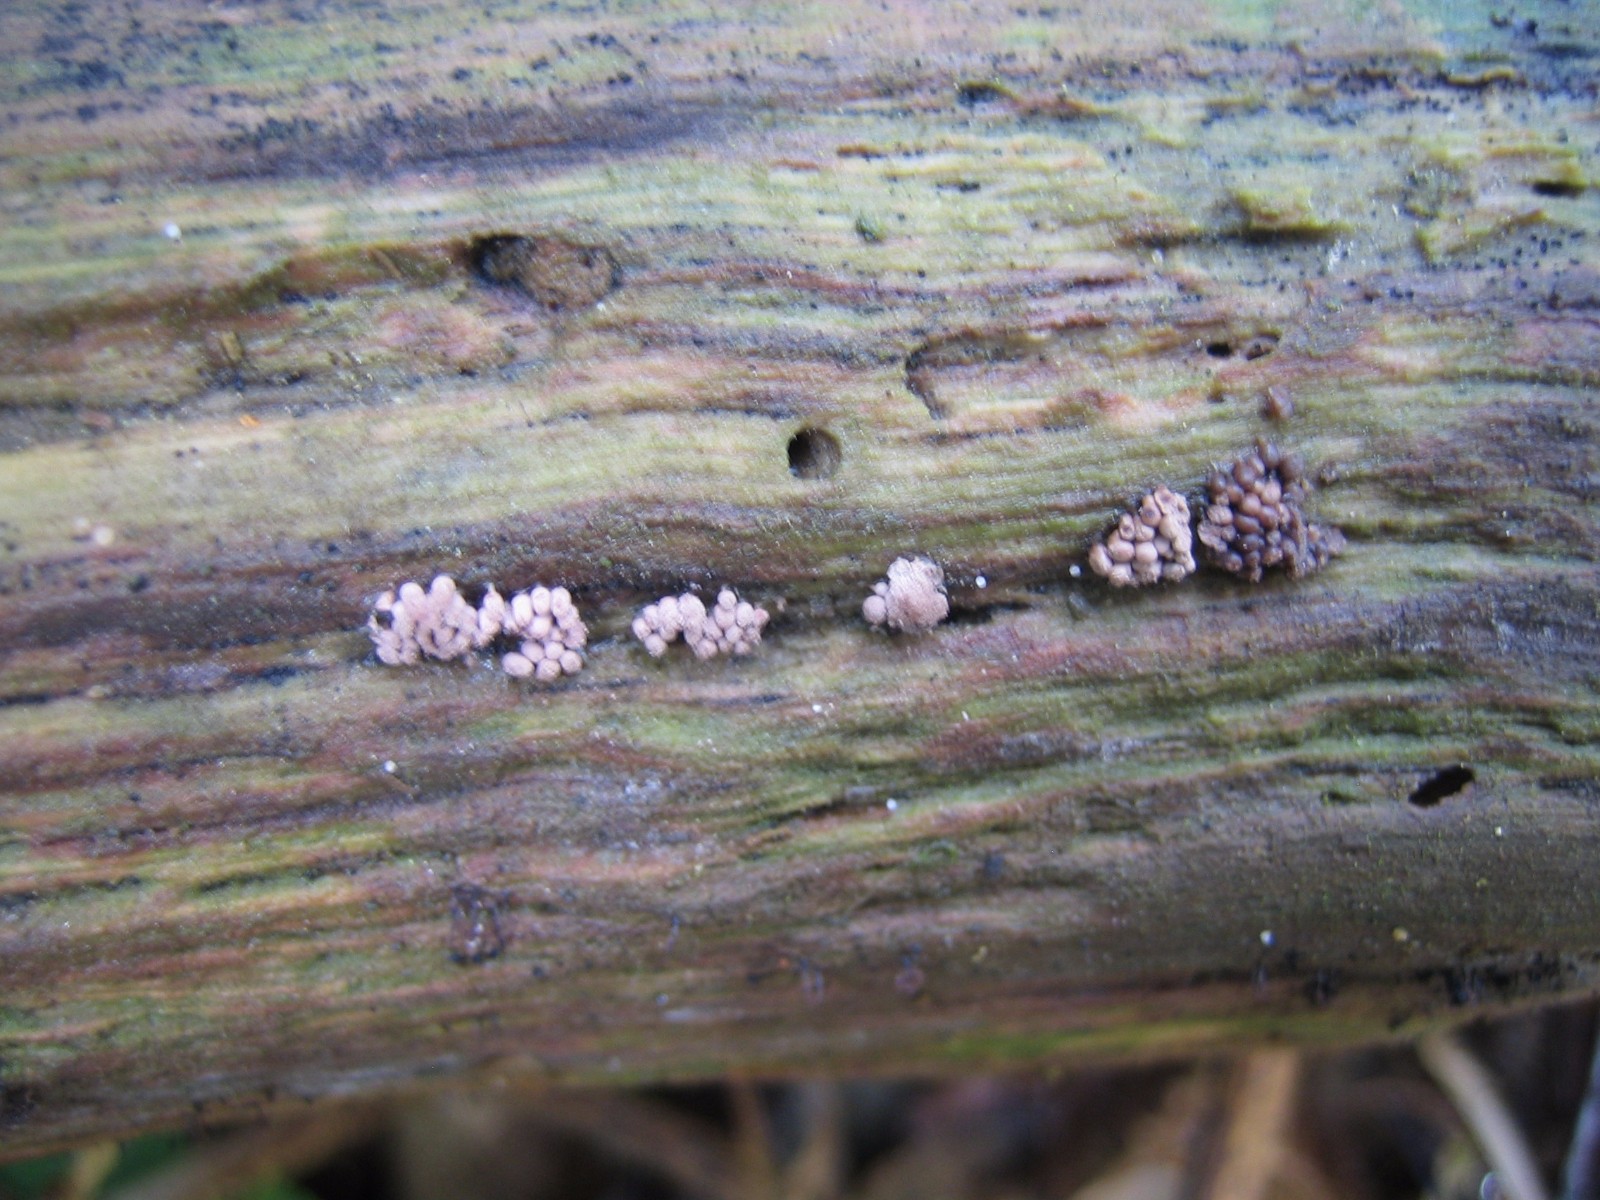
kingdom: Protozoa
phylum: Mycetozoa
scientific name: Mycetozoa
